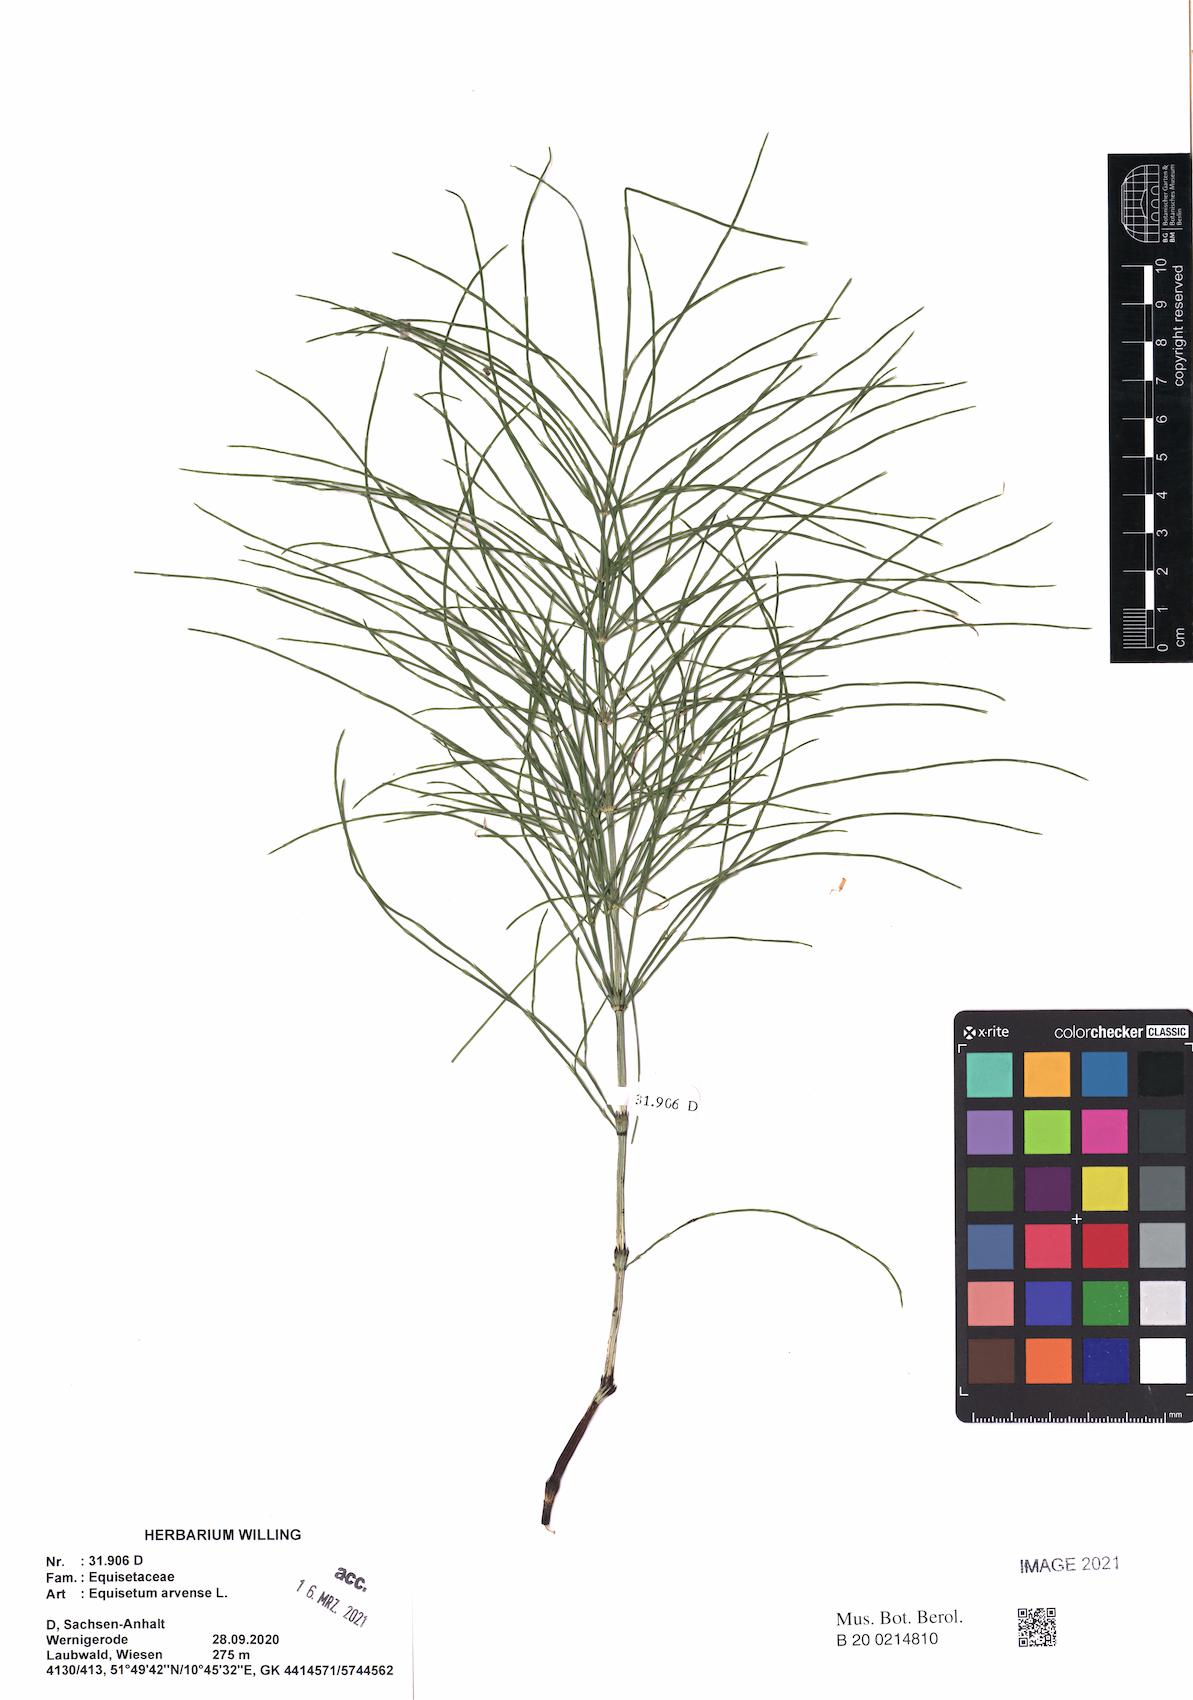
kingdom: Plantae
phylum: Tracheophyta
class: Polypodiopsida
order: Equisetales
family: Equisetaceae
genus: Equisetum
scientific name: Equisetum arvense
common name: Field horsetail
